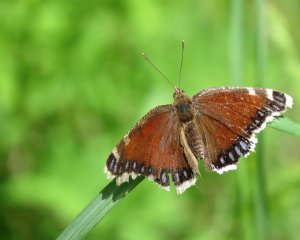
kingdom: Animalia
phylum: Arthropoda
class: Insecta
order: Lepidoptera
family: Nymphalidae
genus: Nymphalis
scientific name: Nymphalis antiopa
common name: Mourning Cloak
